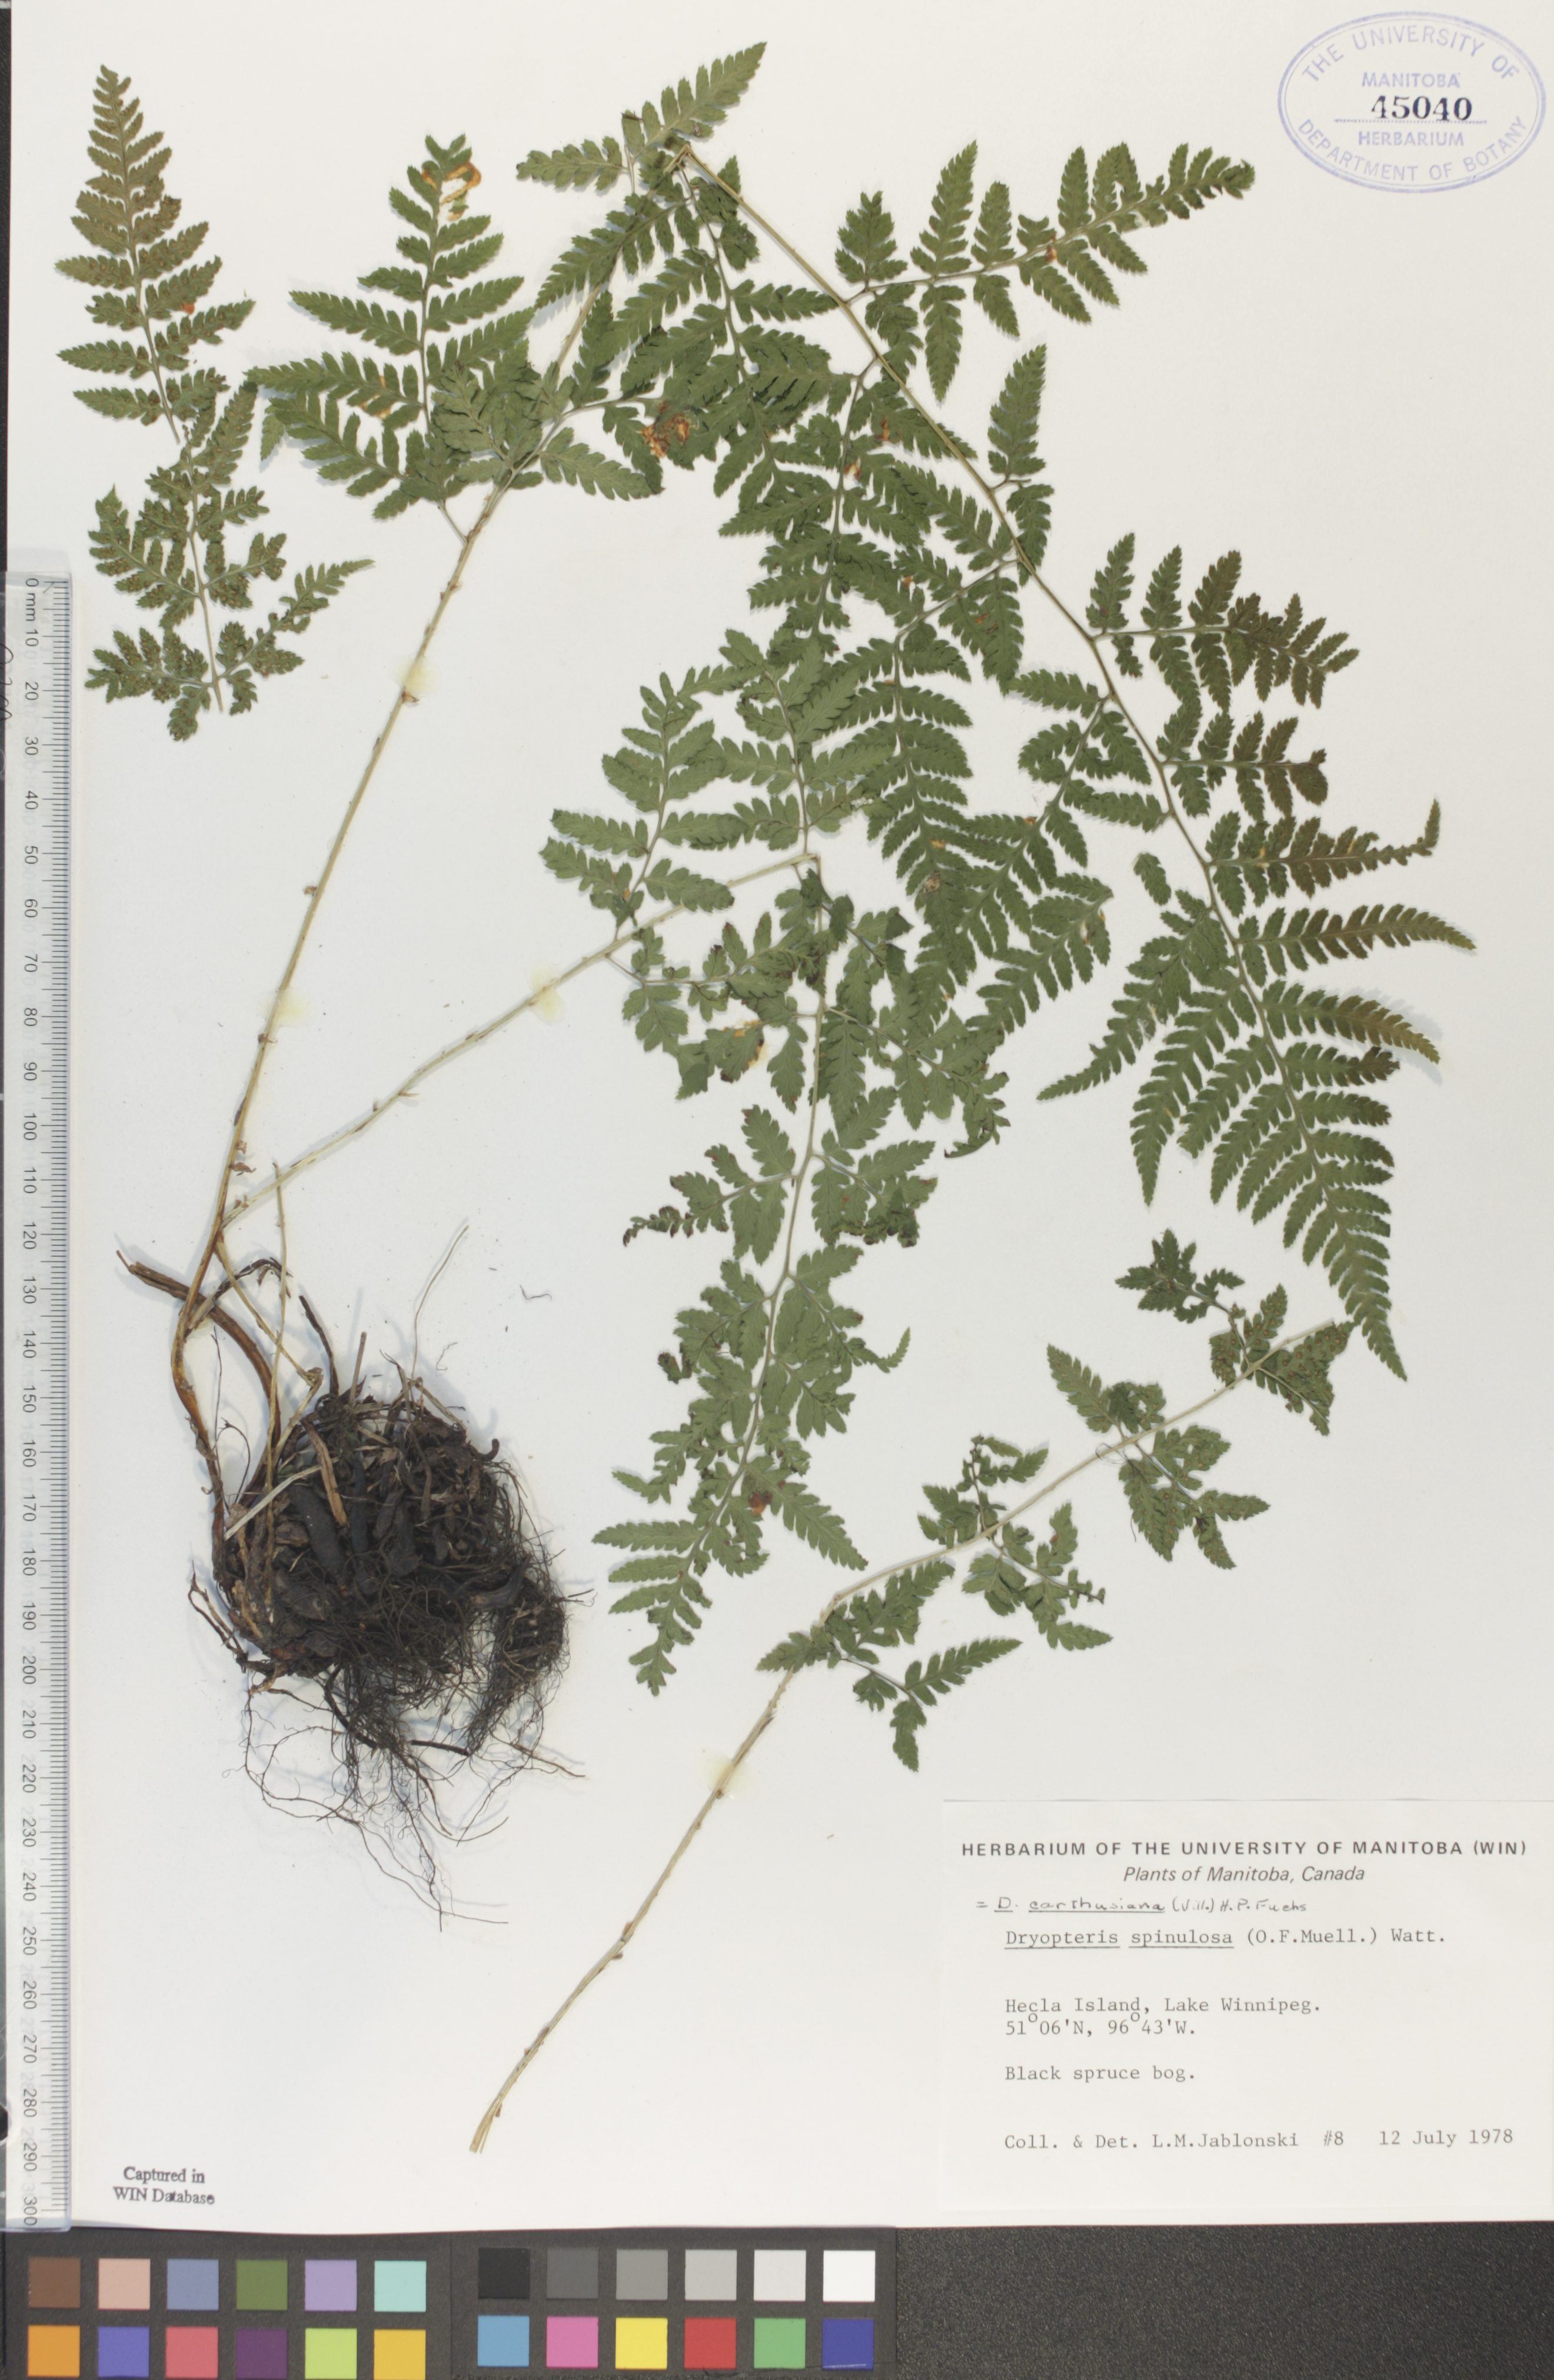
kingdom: Plantae
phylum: Tracheophyta
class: Polypodiopsida
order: Polypodiales
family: Dryopteridaceae
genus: Dryopteris
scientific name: Dryopteris carthusiana
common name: Narrow buckler-fern
